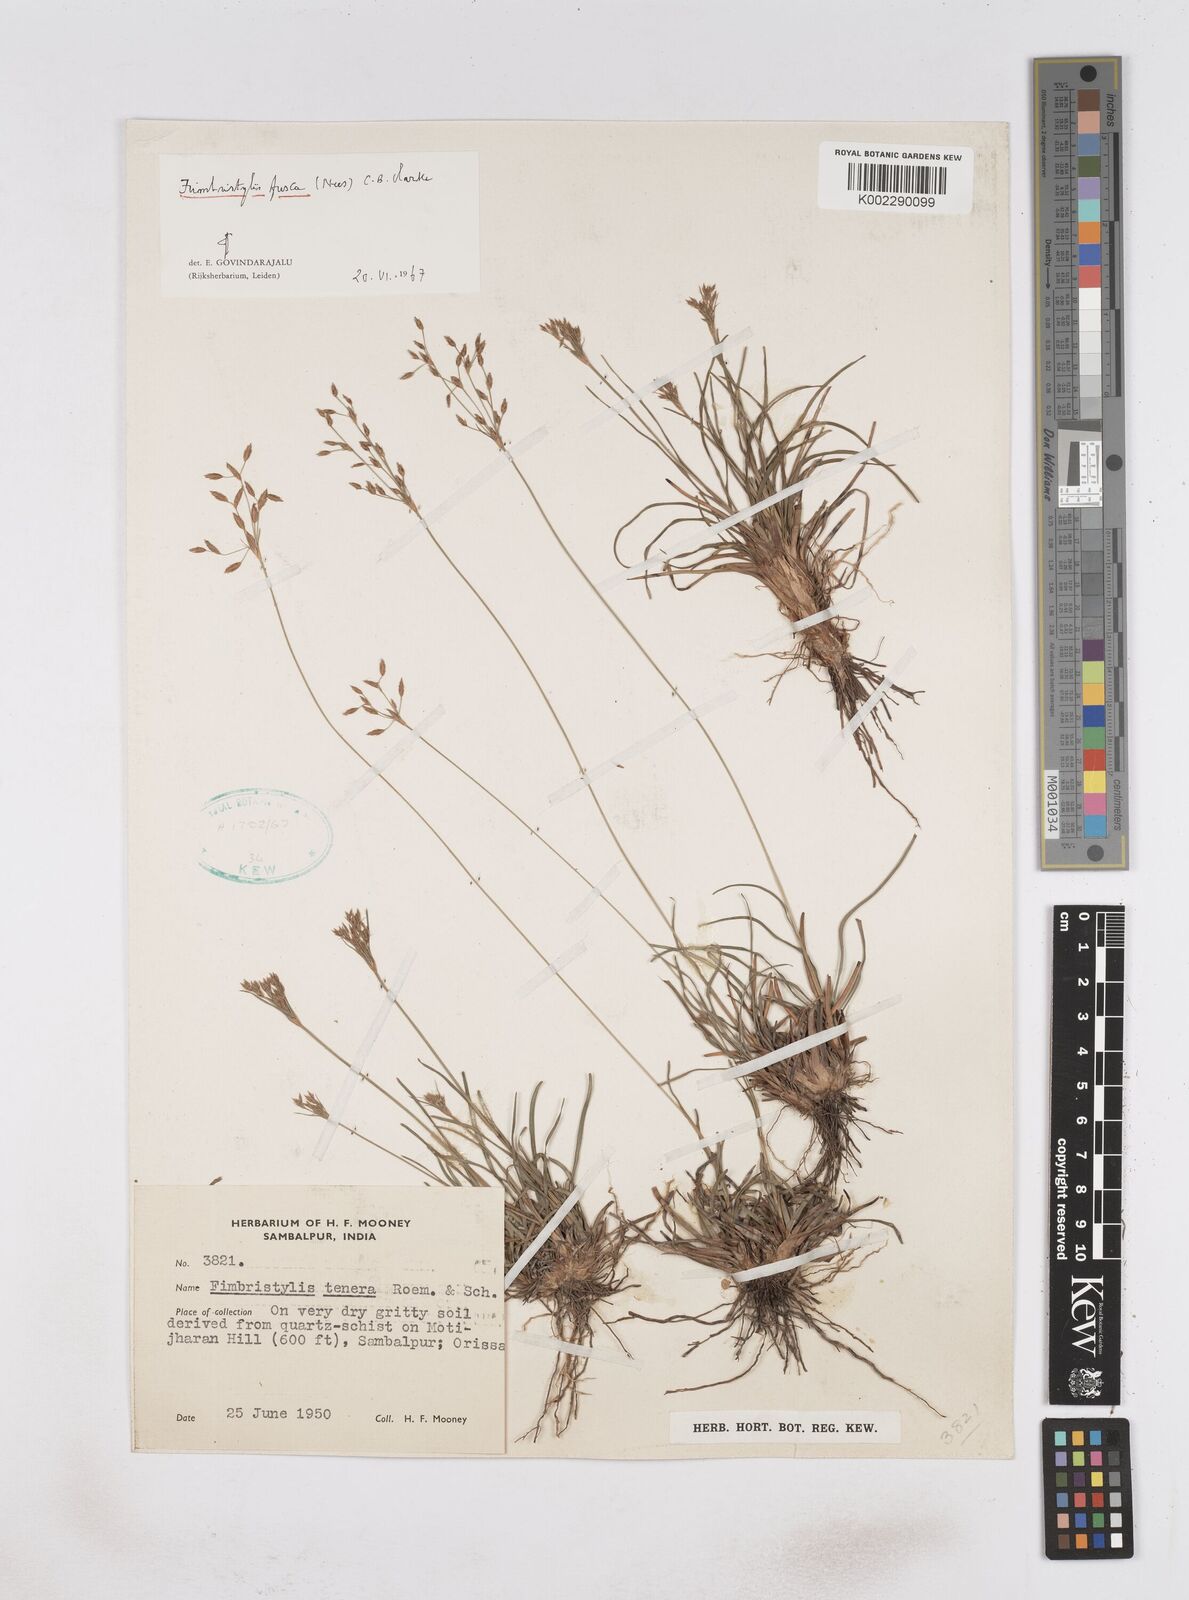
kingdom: Plantae
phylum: Tracheophyta
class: Liliopsida
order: Poales
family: Cyperaceae
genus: Fimbristylis
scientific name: Fimbristylis fusca
